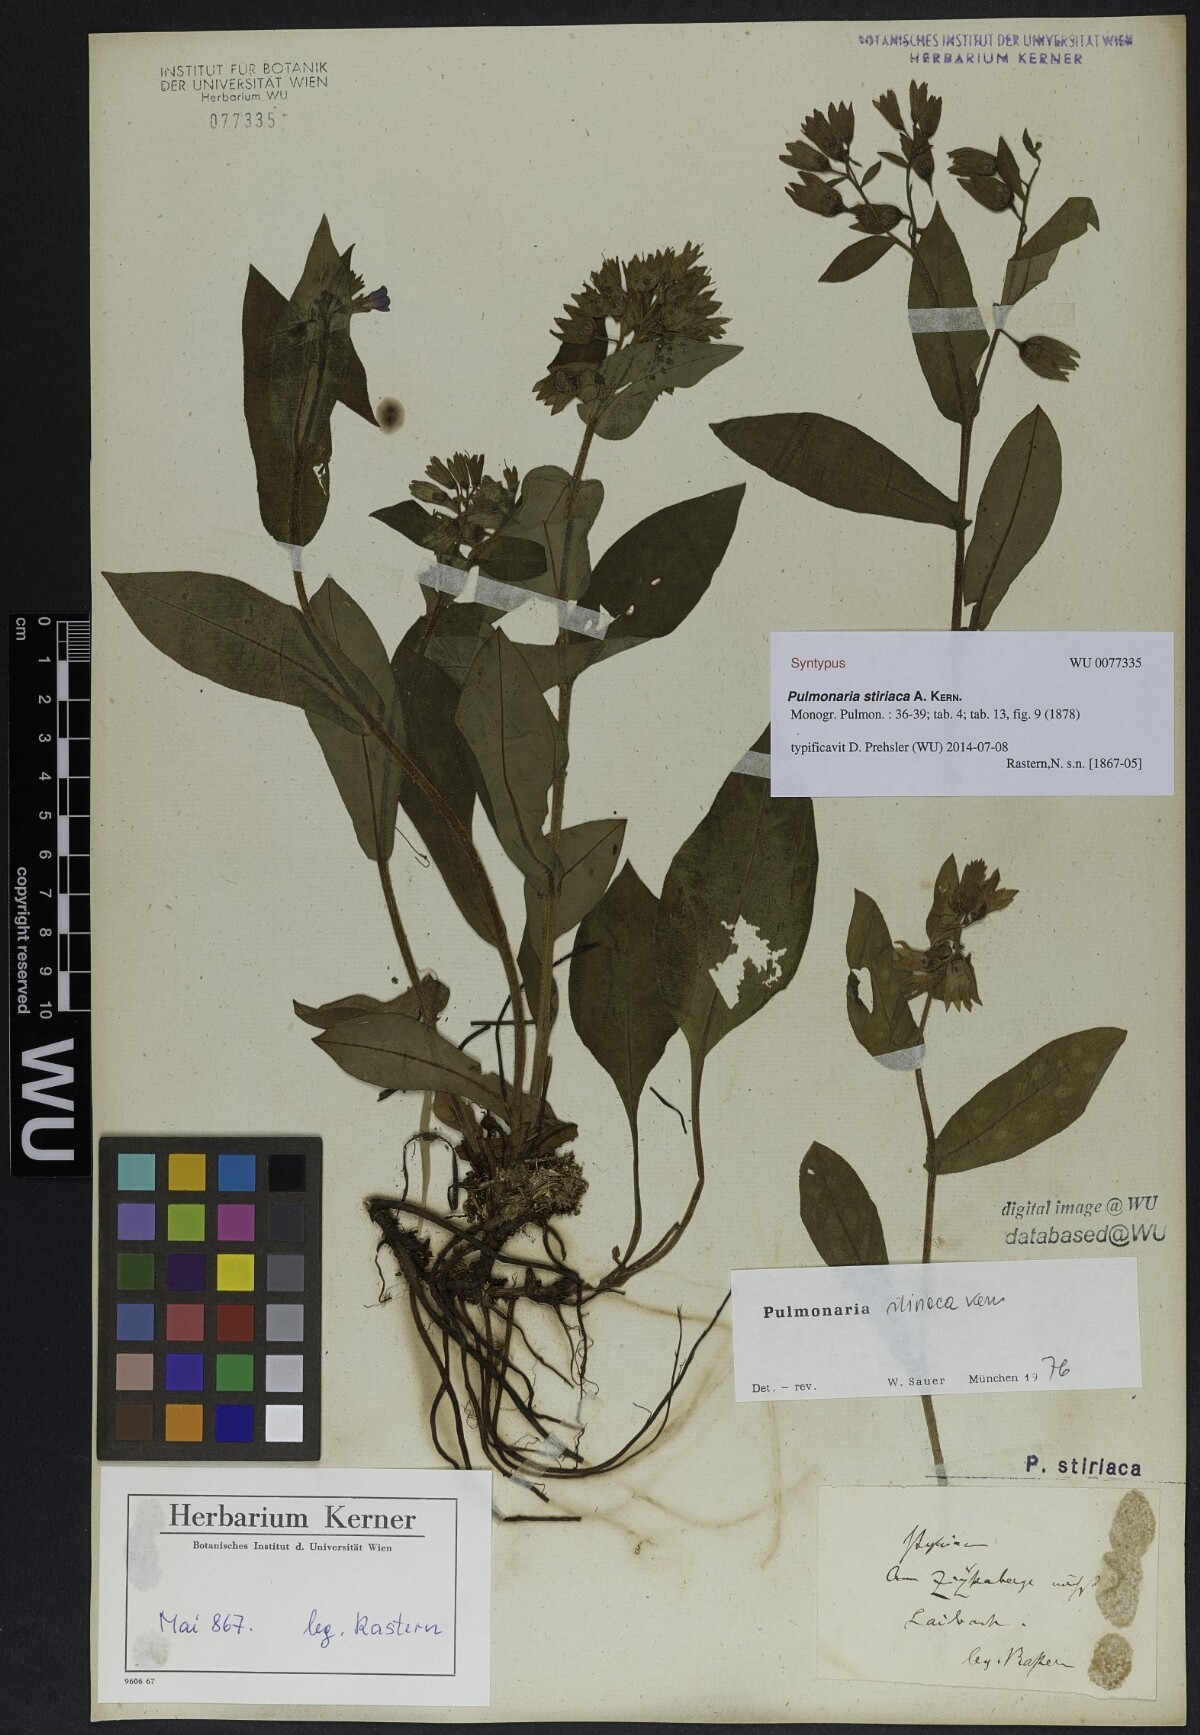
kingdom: Plantae
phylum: Tracheophyta
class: Magnoliopsida
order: Boraginales
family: Boraginaceae
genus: Pulmonaria
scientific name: Pulmonaria stiriaca
